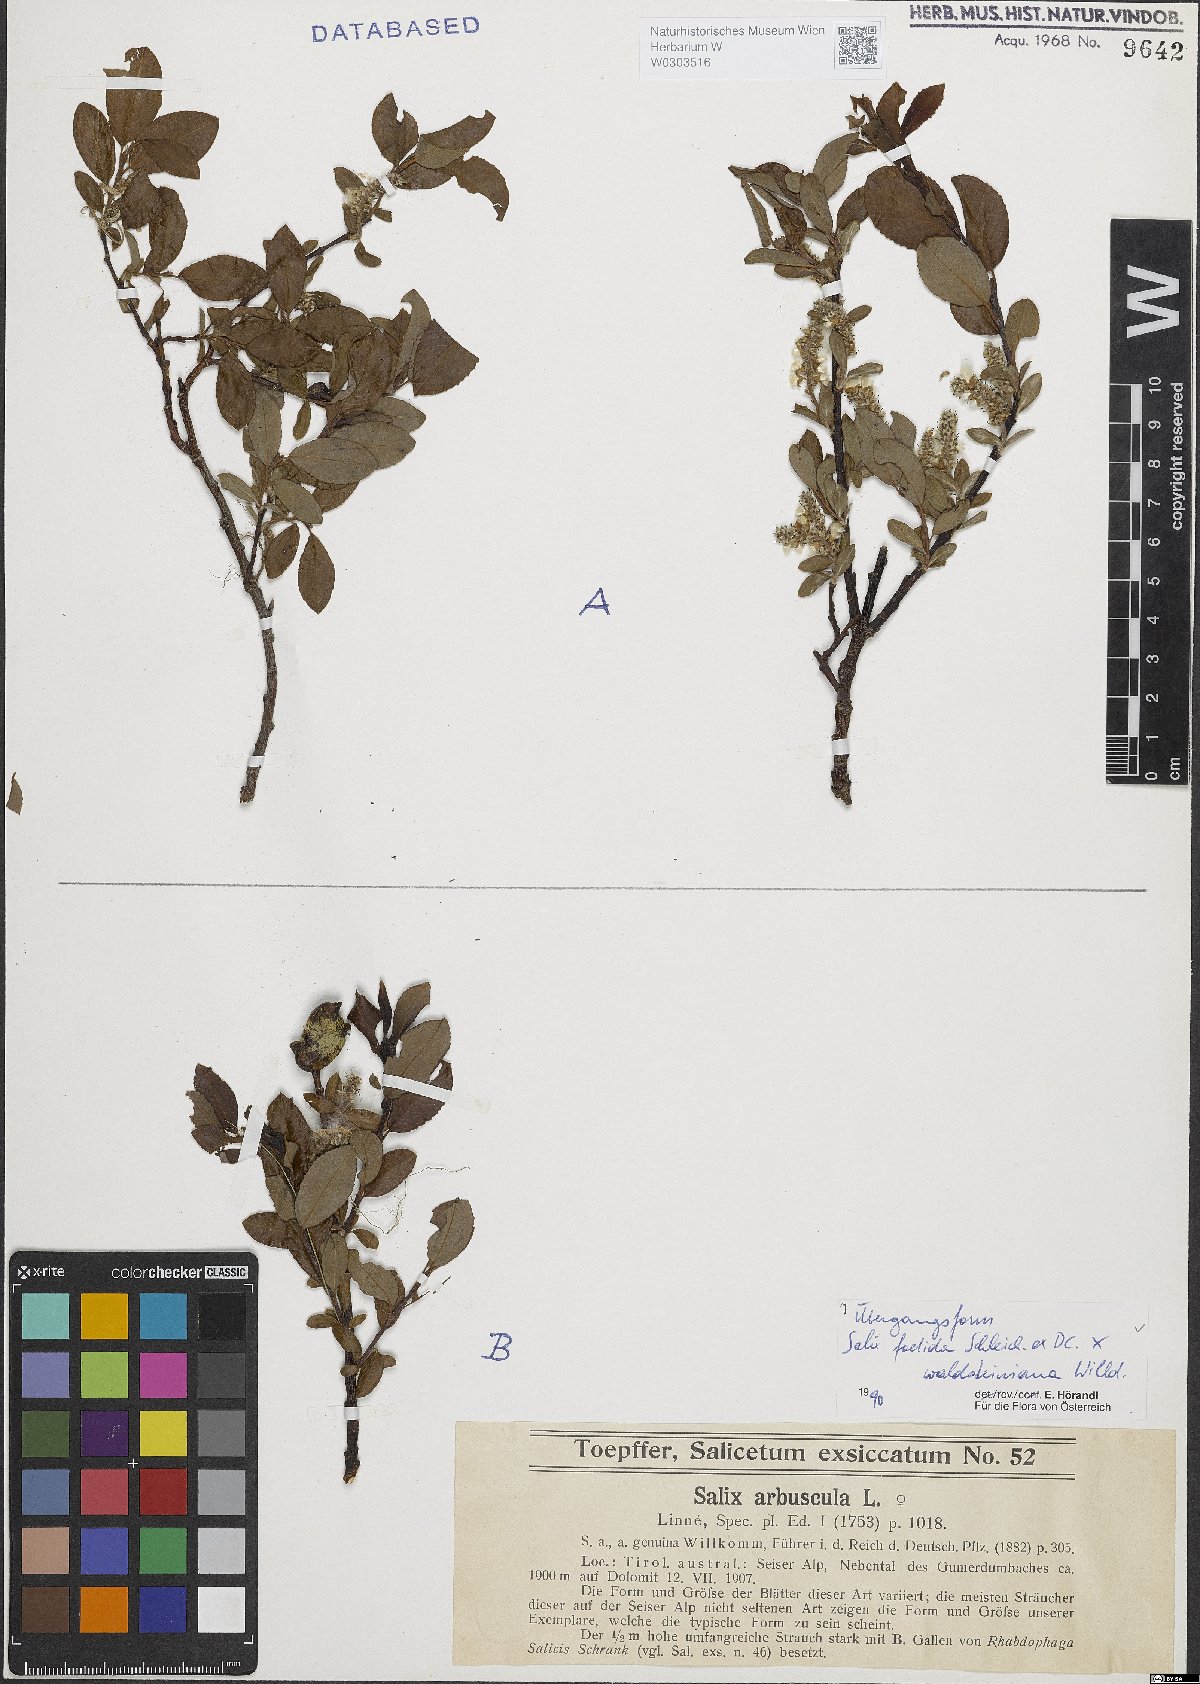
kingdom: Plantae
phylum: Tracheophyta
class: Magnoliopsida
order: Malpighiales
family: Salicaceae
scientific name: Salicaceae
